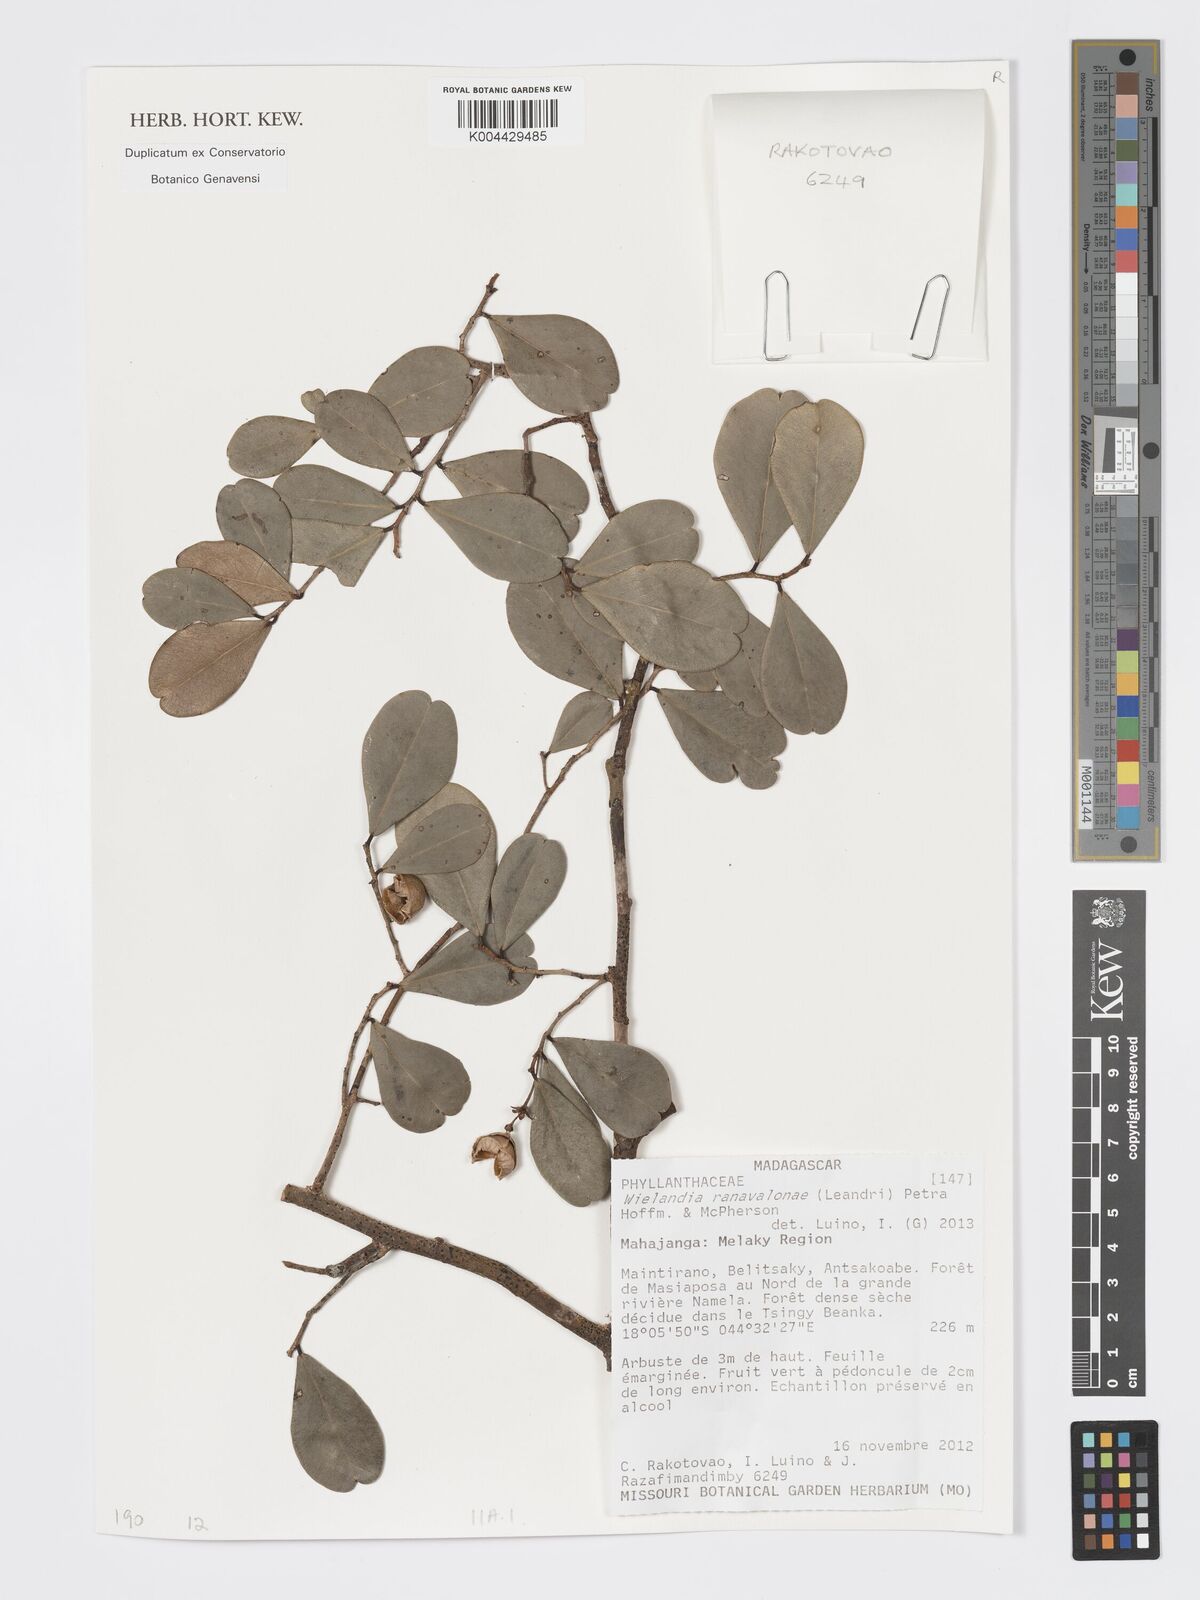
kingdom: Plantae
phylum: Tracheophyta
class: Magnoliopsida
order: Malpighiales
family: Phyllanthaceae
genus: Wielandia
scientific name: Wielandia ranavalonae
